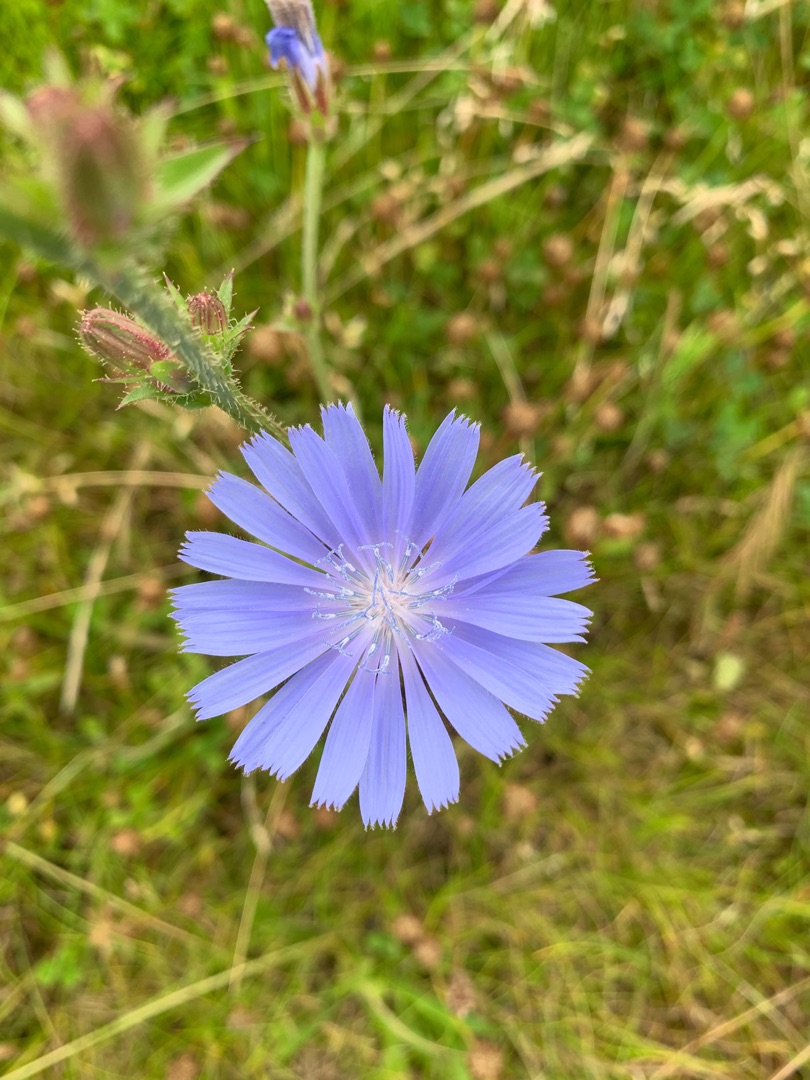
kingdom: Plantae
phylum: Tracheophyta
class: Magnoliopsida
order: Asterales
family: Asteraceae
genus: Cichorium
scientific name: Cichorium intybus
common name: Cikorie
